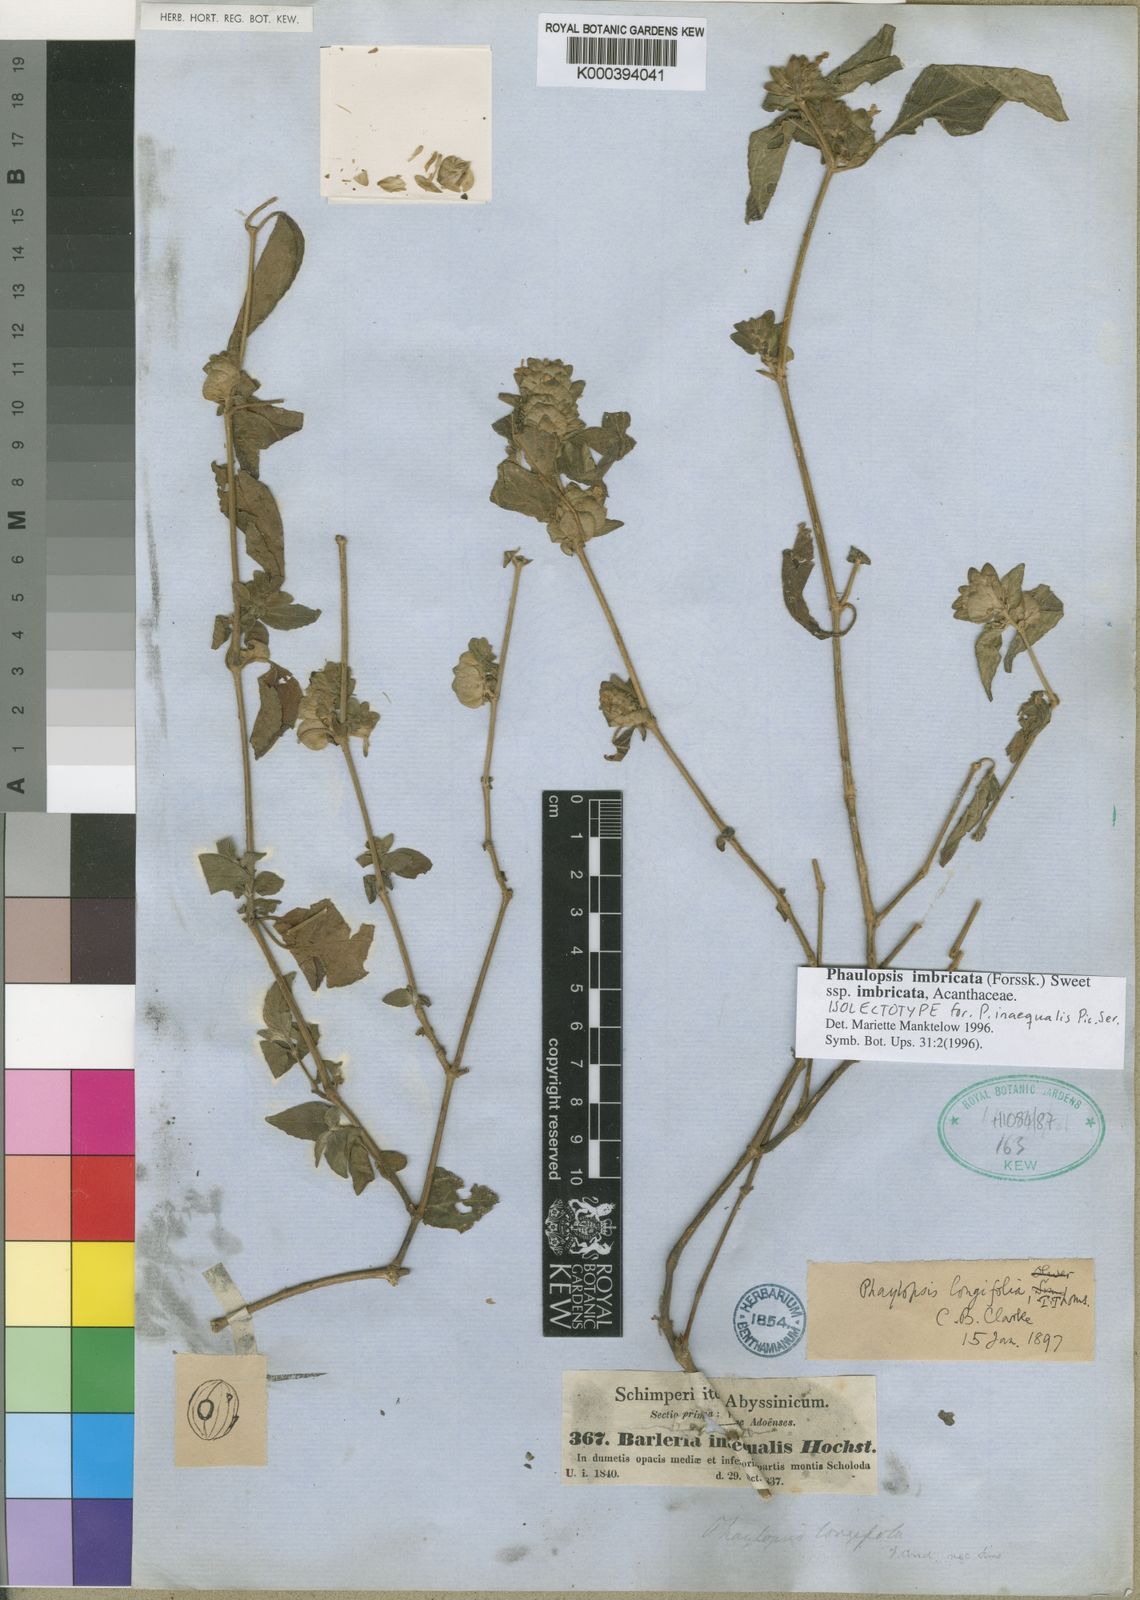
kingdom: Plantae
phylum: Tracheophyta
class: Magnoliopsida
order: Lamiales
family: Acanthaceae
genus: Phaulopsis
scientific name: Phaulopsis imbricata
